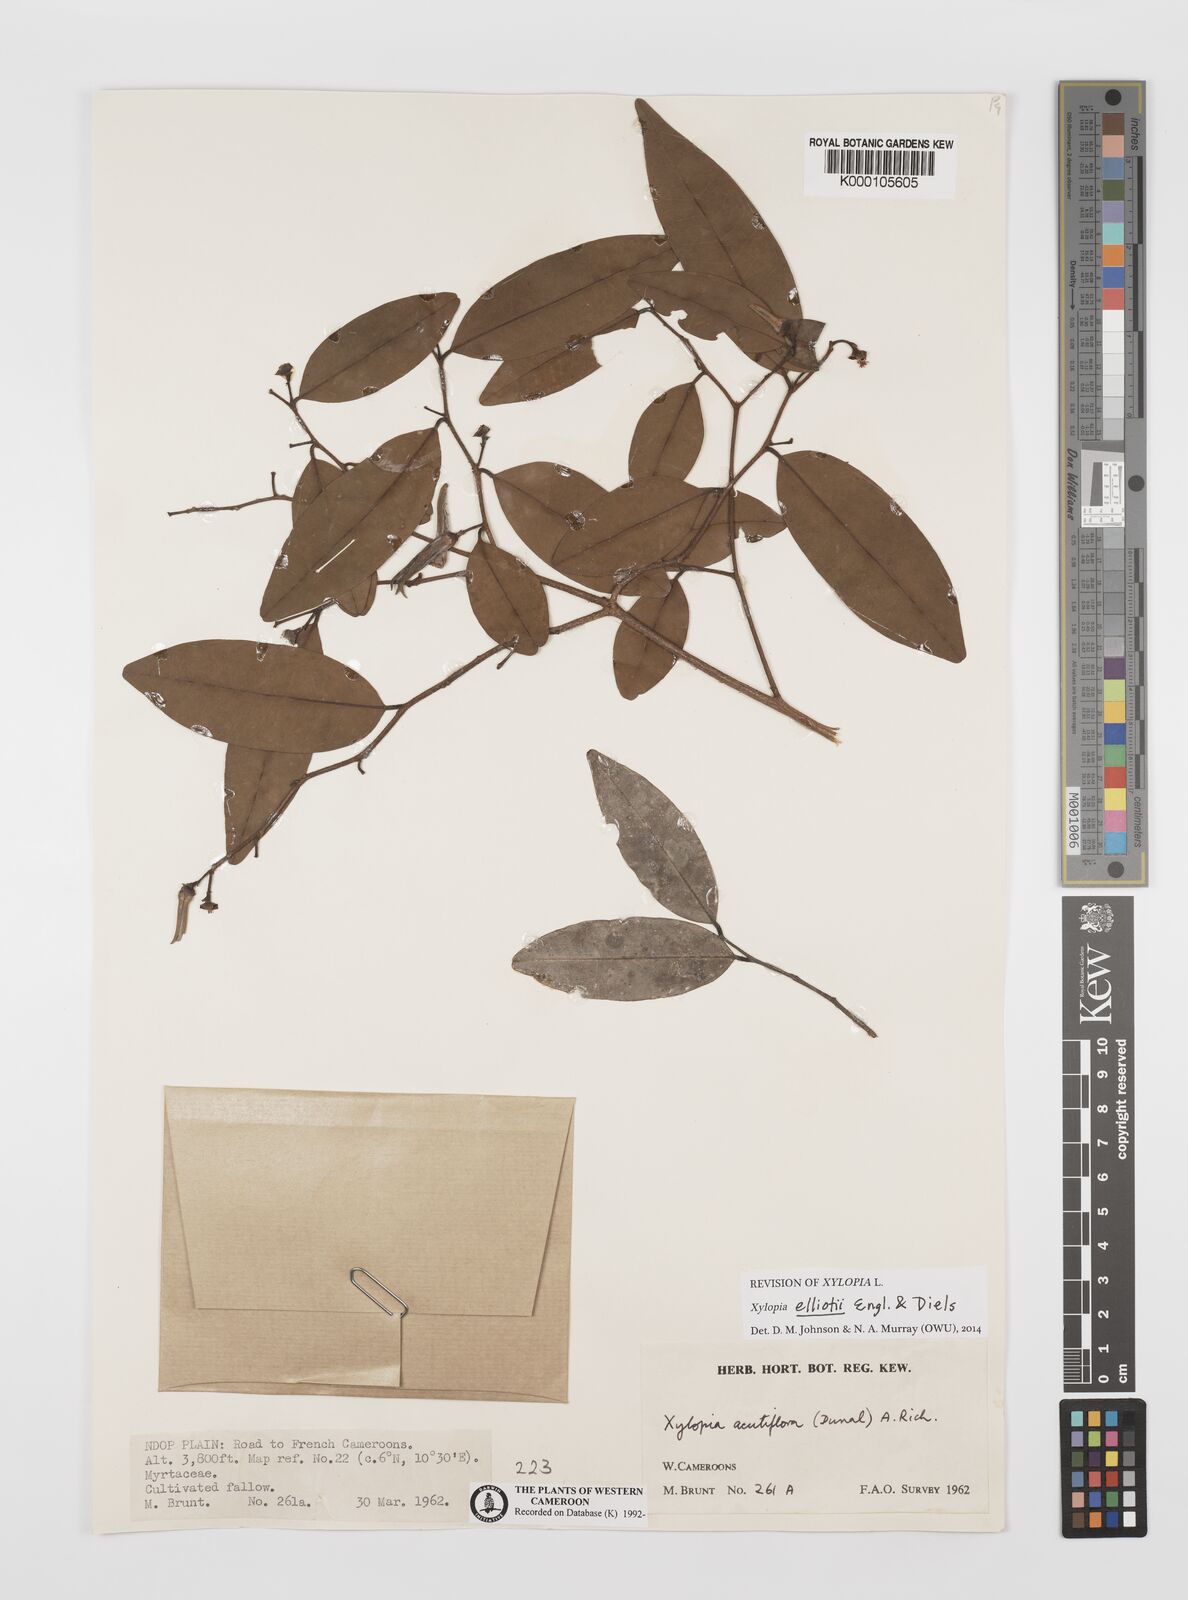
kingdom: Plantae
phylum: Tracheophyta
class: Magnoliopsida
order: Magnoliales
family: Annonaceae
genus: Xylopia
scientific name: Xylopia acutiflora
